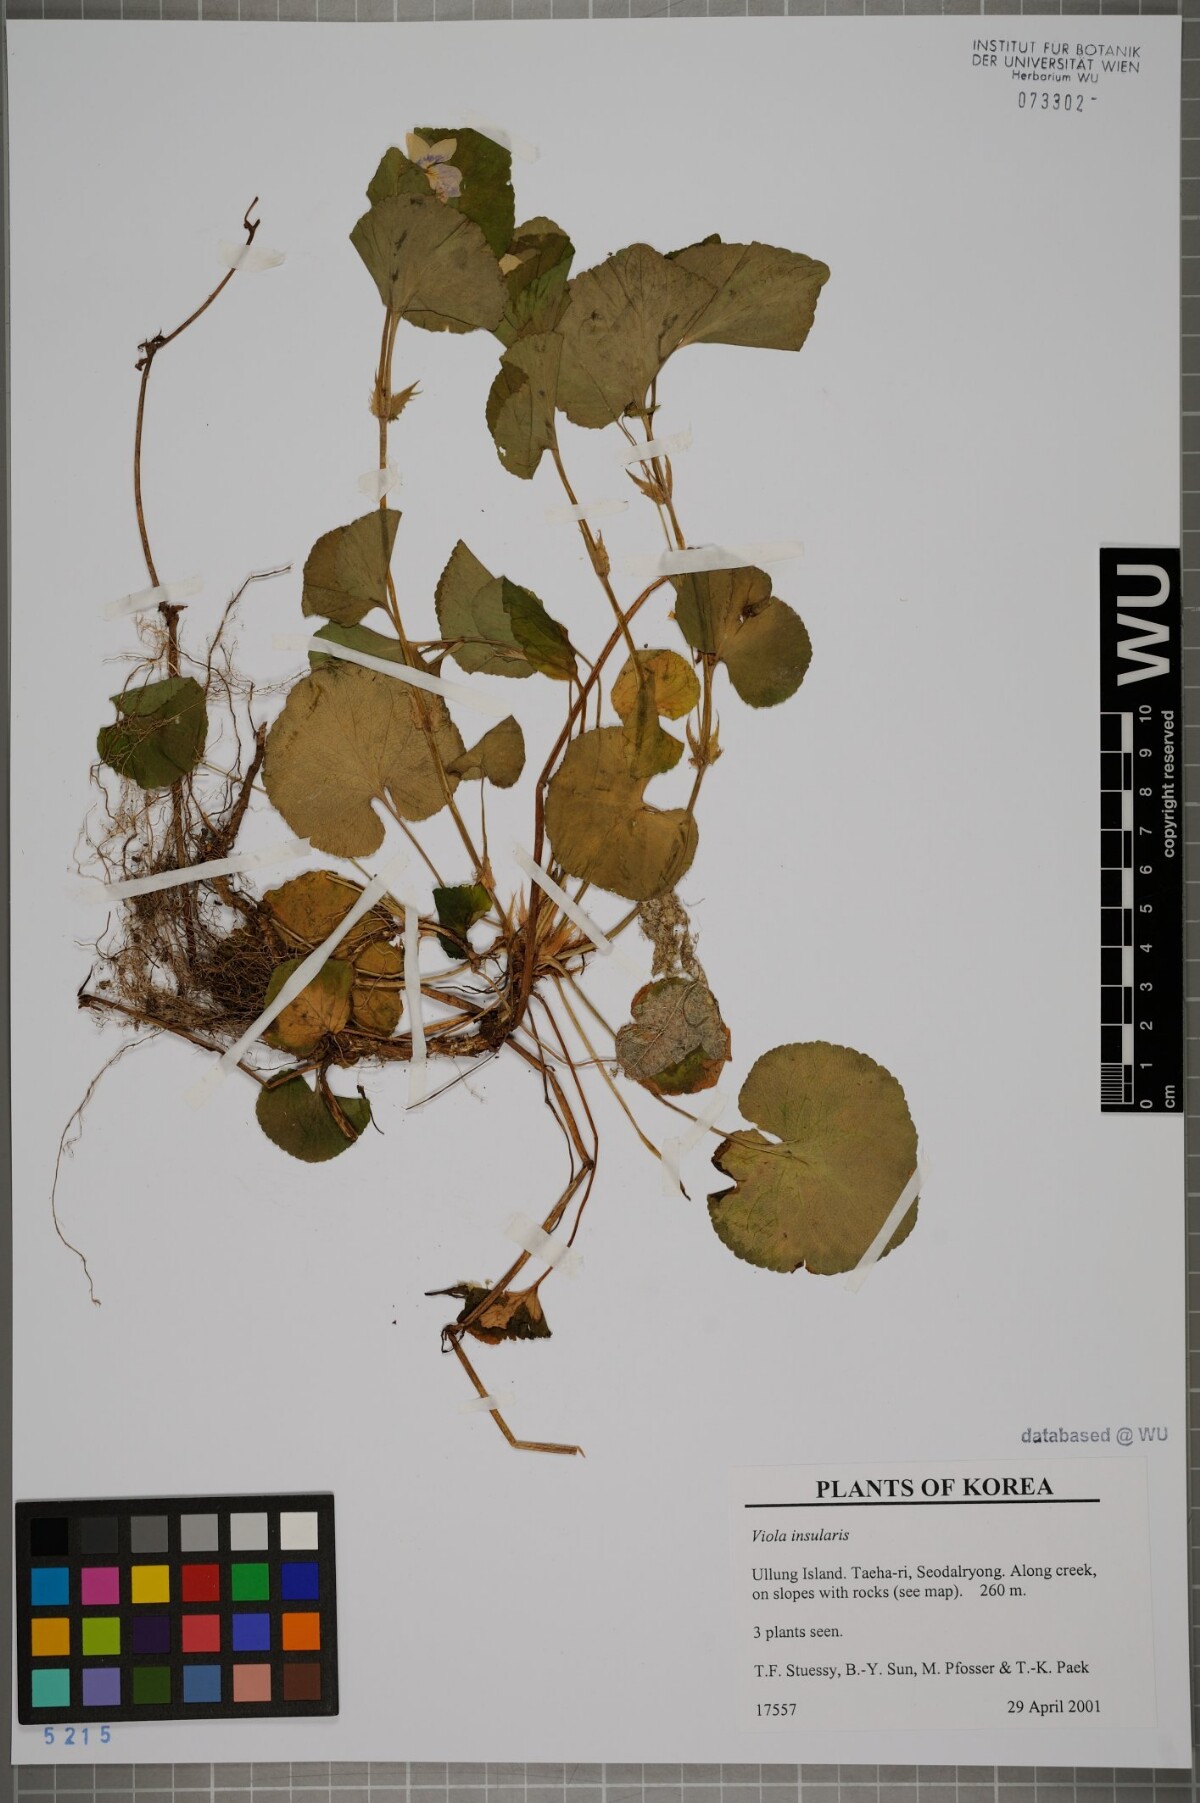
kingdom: Plantae
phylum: Tracheophyta
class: Magnoliopsida
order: Malpighiales
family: Violaceae
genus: Viola
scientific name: Viola kusanoana
